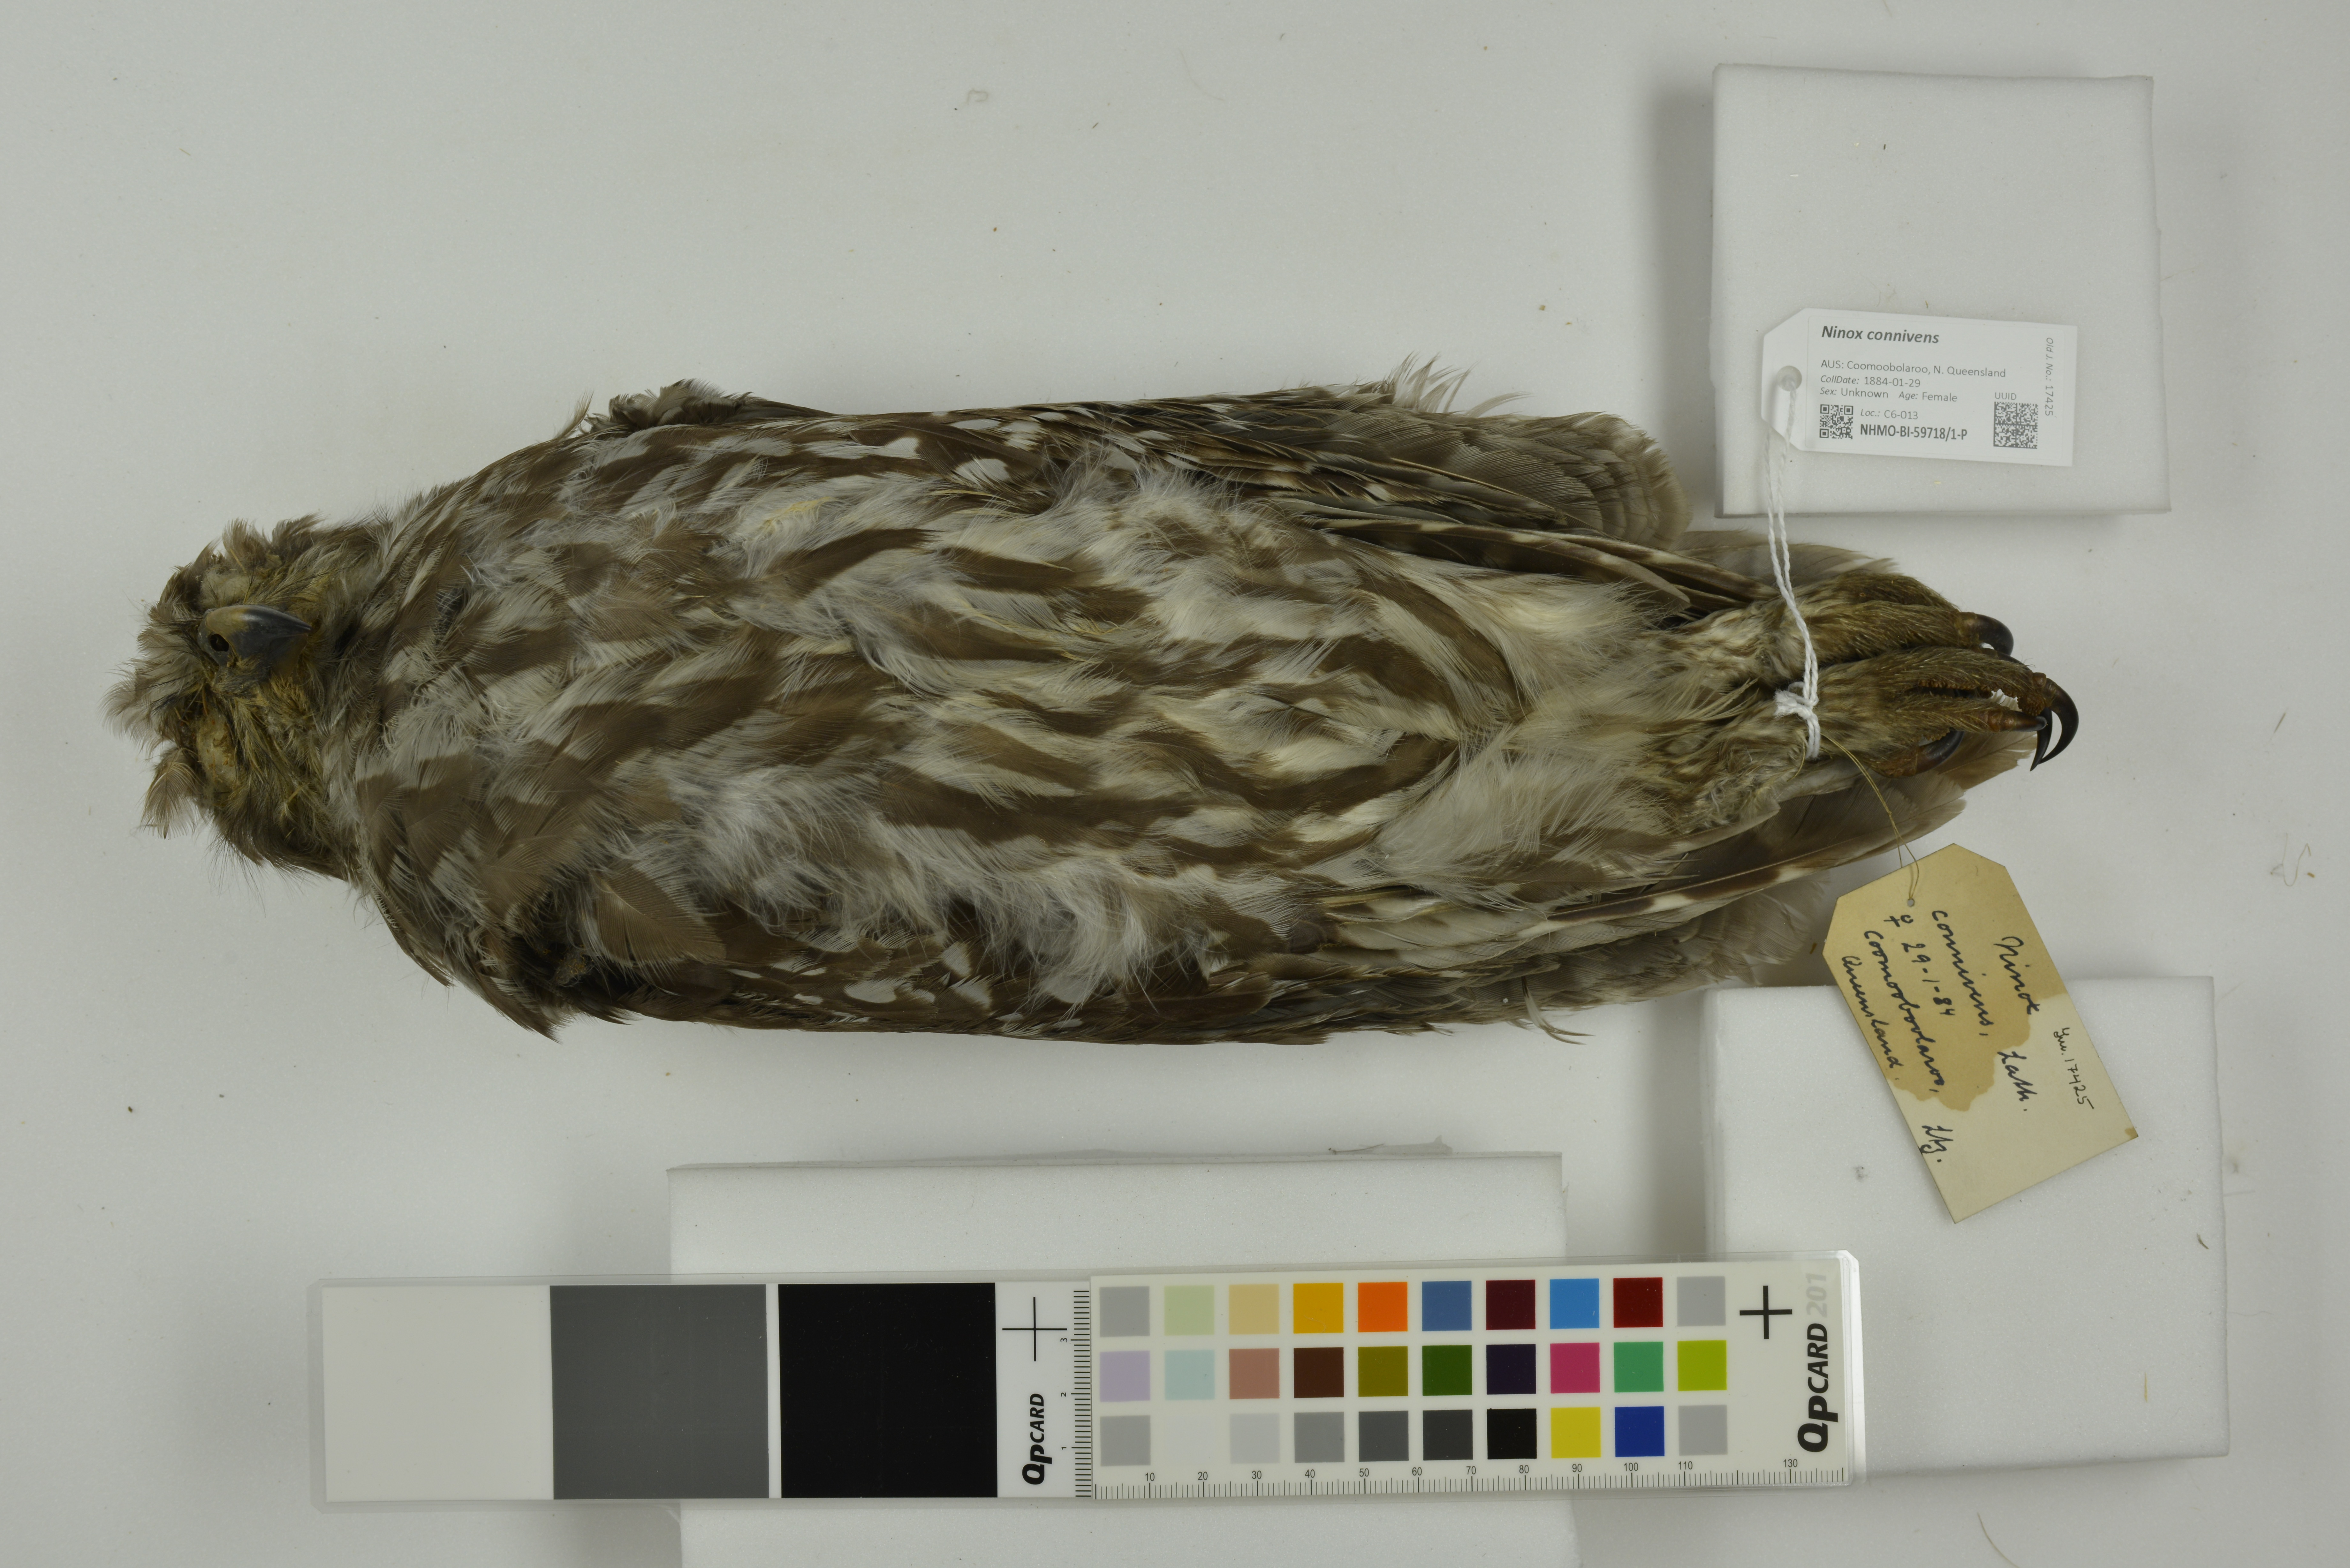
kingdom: Animalia
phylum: Chordata
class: Aves
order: Strigiformes
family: Strigidae
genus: Ninox
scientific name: Ninox connivens
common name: Barking owl
